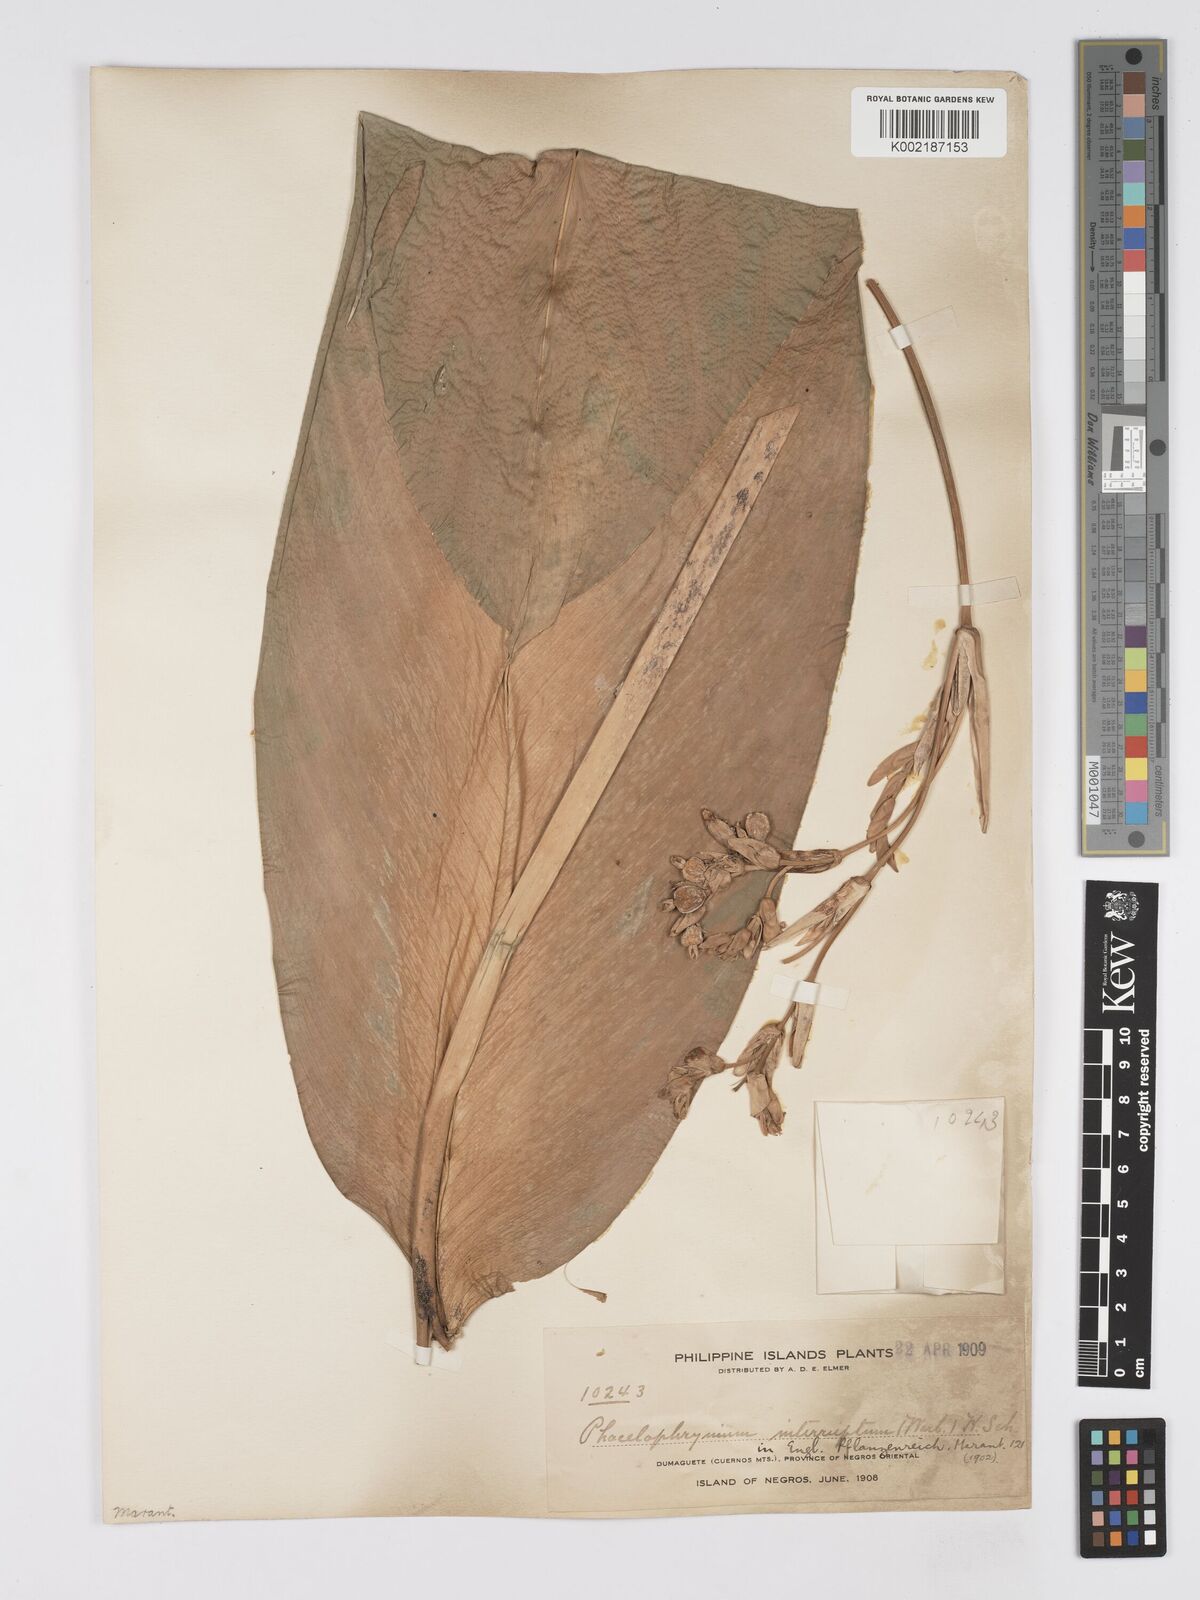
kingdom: Plantae
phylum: Tracheophyta
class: Liliopsida
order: Zingiberales
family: Marantaceae
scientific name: Marantaceae
